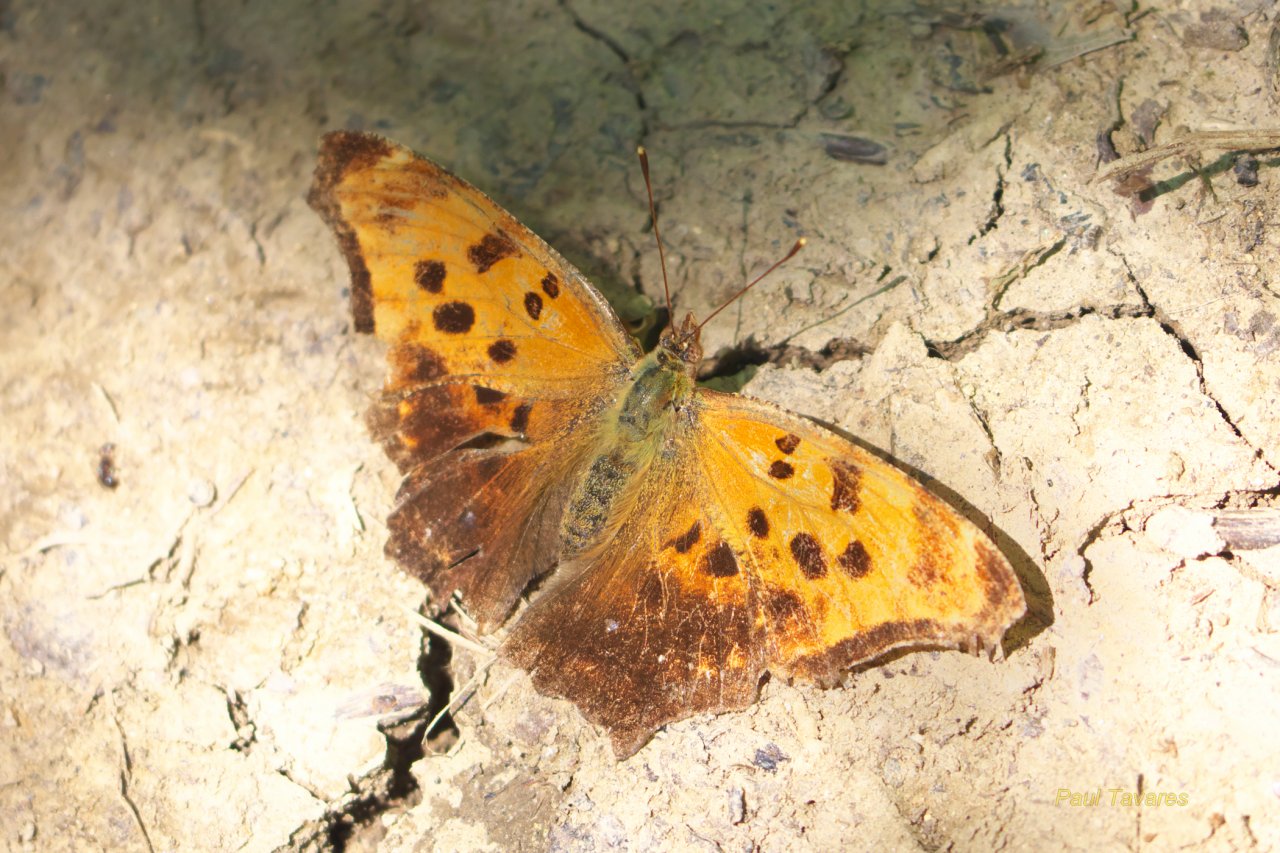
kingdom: Animalia
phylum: Arthropoda
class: Insecta
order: Lepidoptera
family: Nymphalidae
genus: Polygonia
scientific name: Polygonia comma
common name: Eastern Comma
